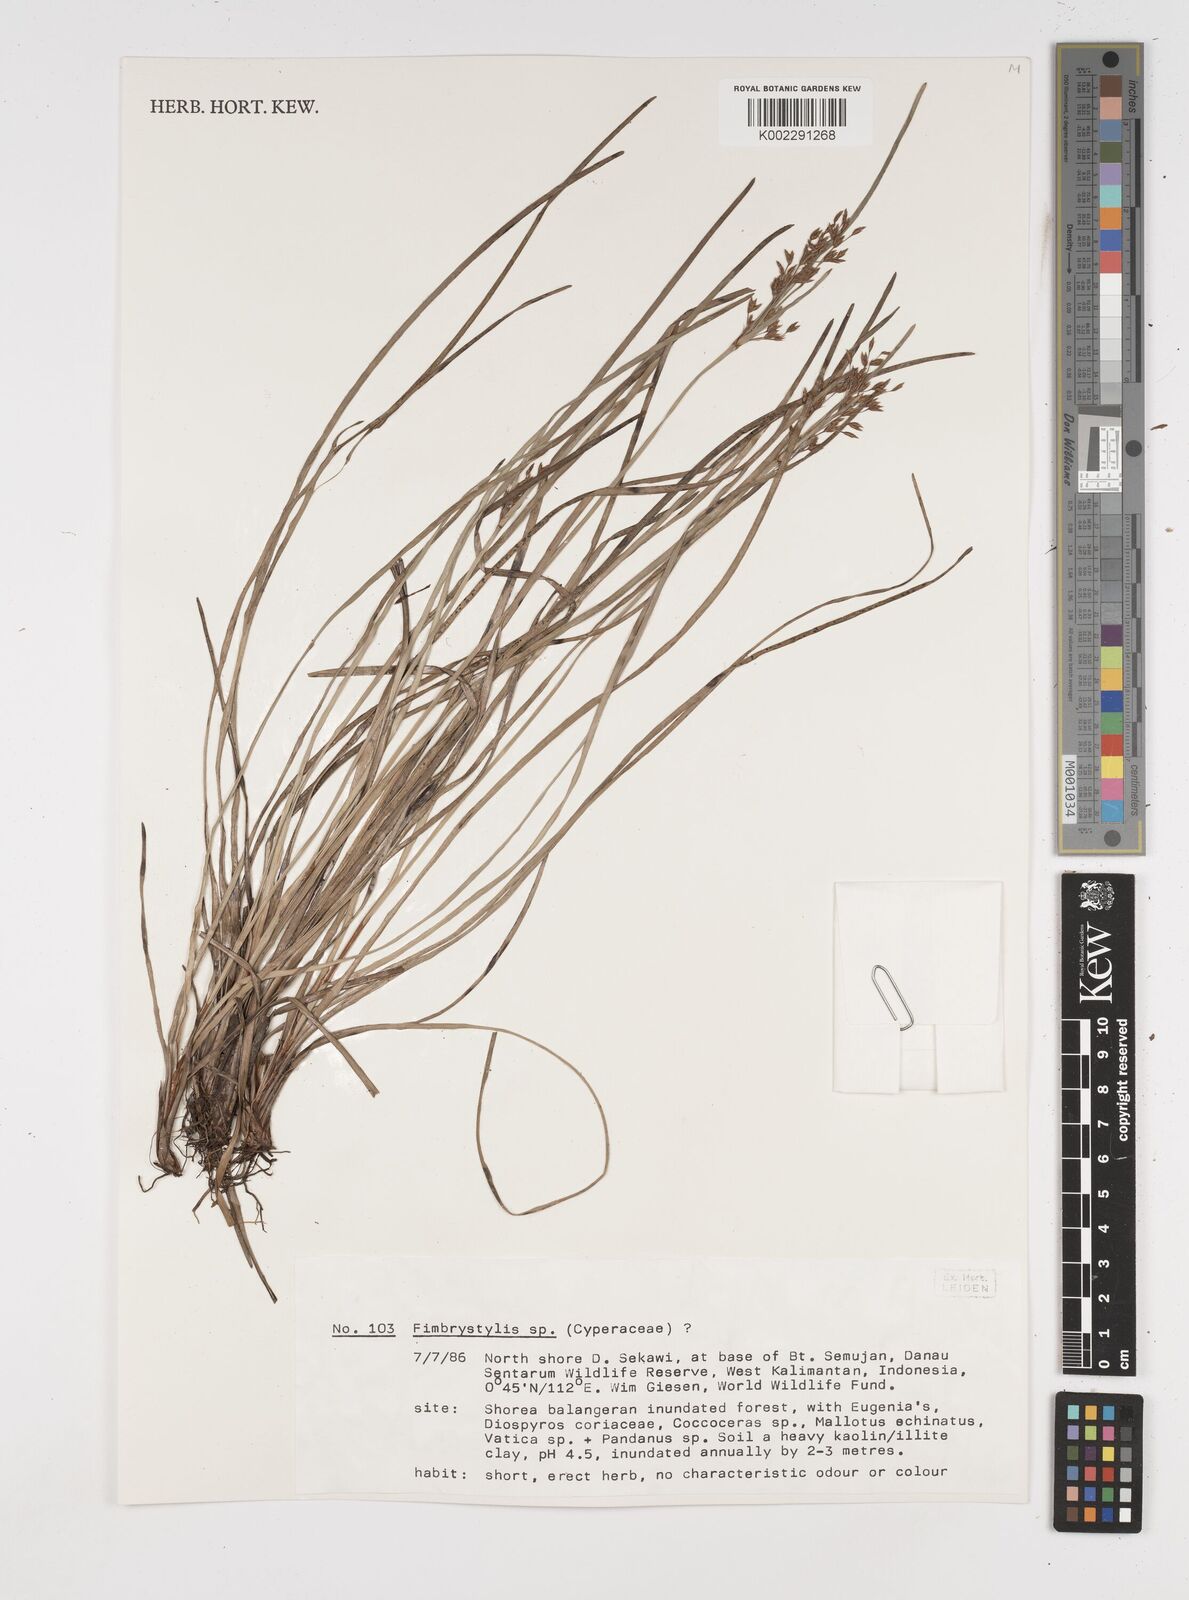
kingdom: Plantae
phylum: Tracheophyta
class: Liliopsida
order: Poales
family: Cyperaceae
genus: Fimbristylis
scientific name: Fimbristylis
